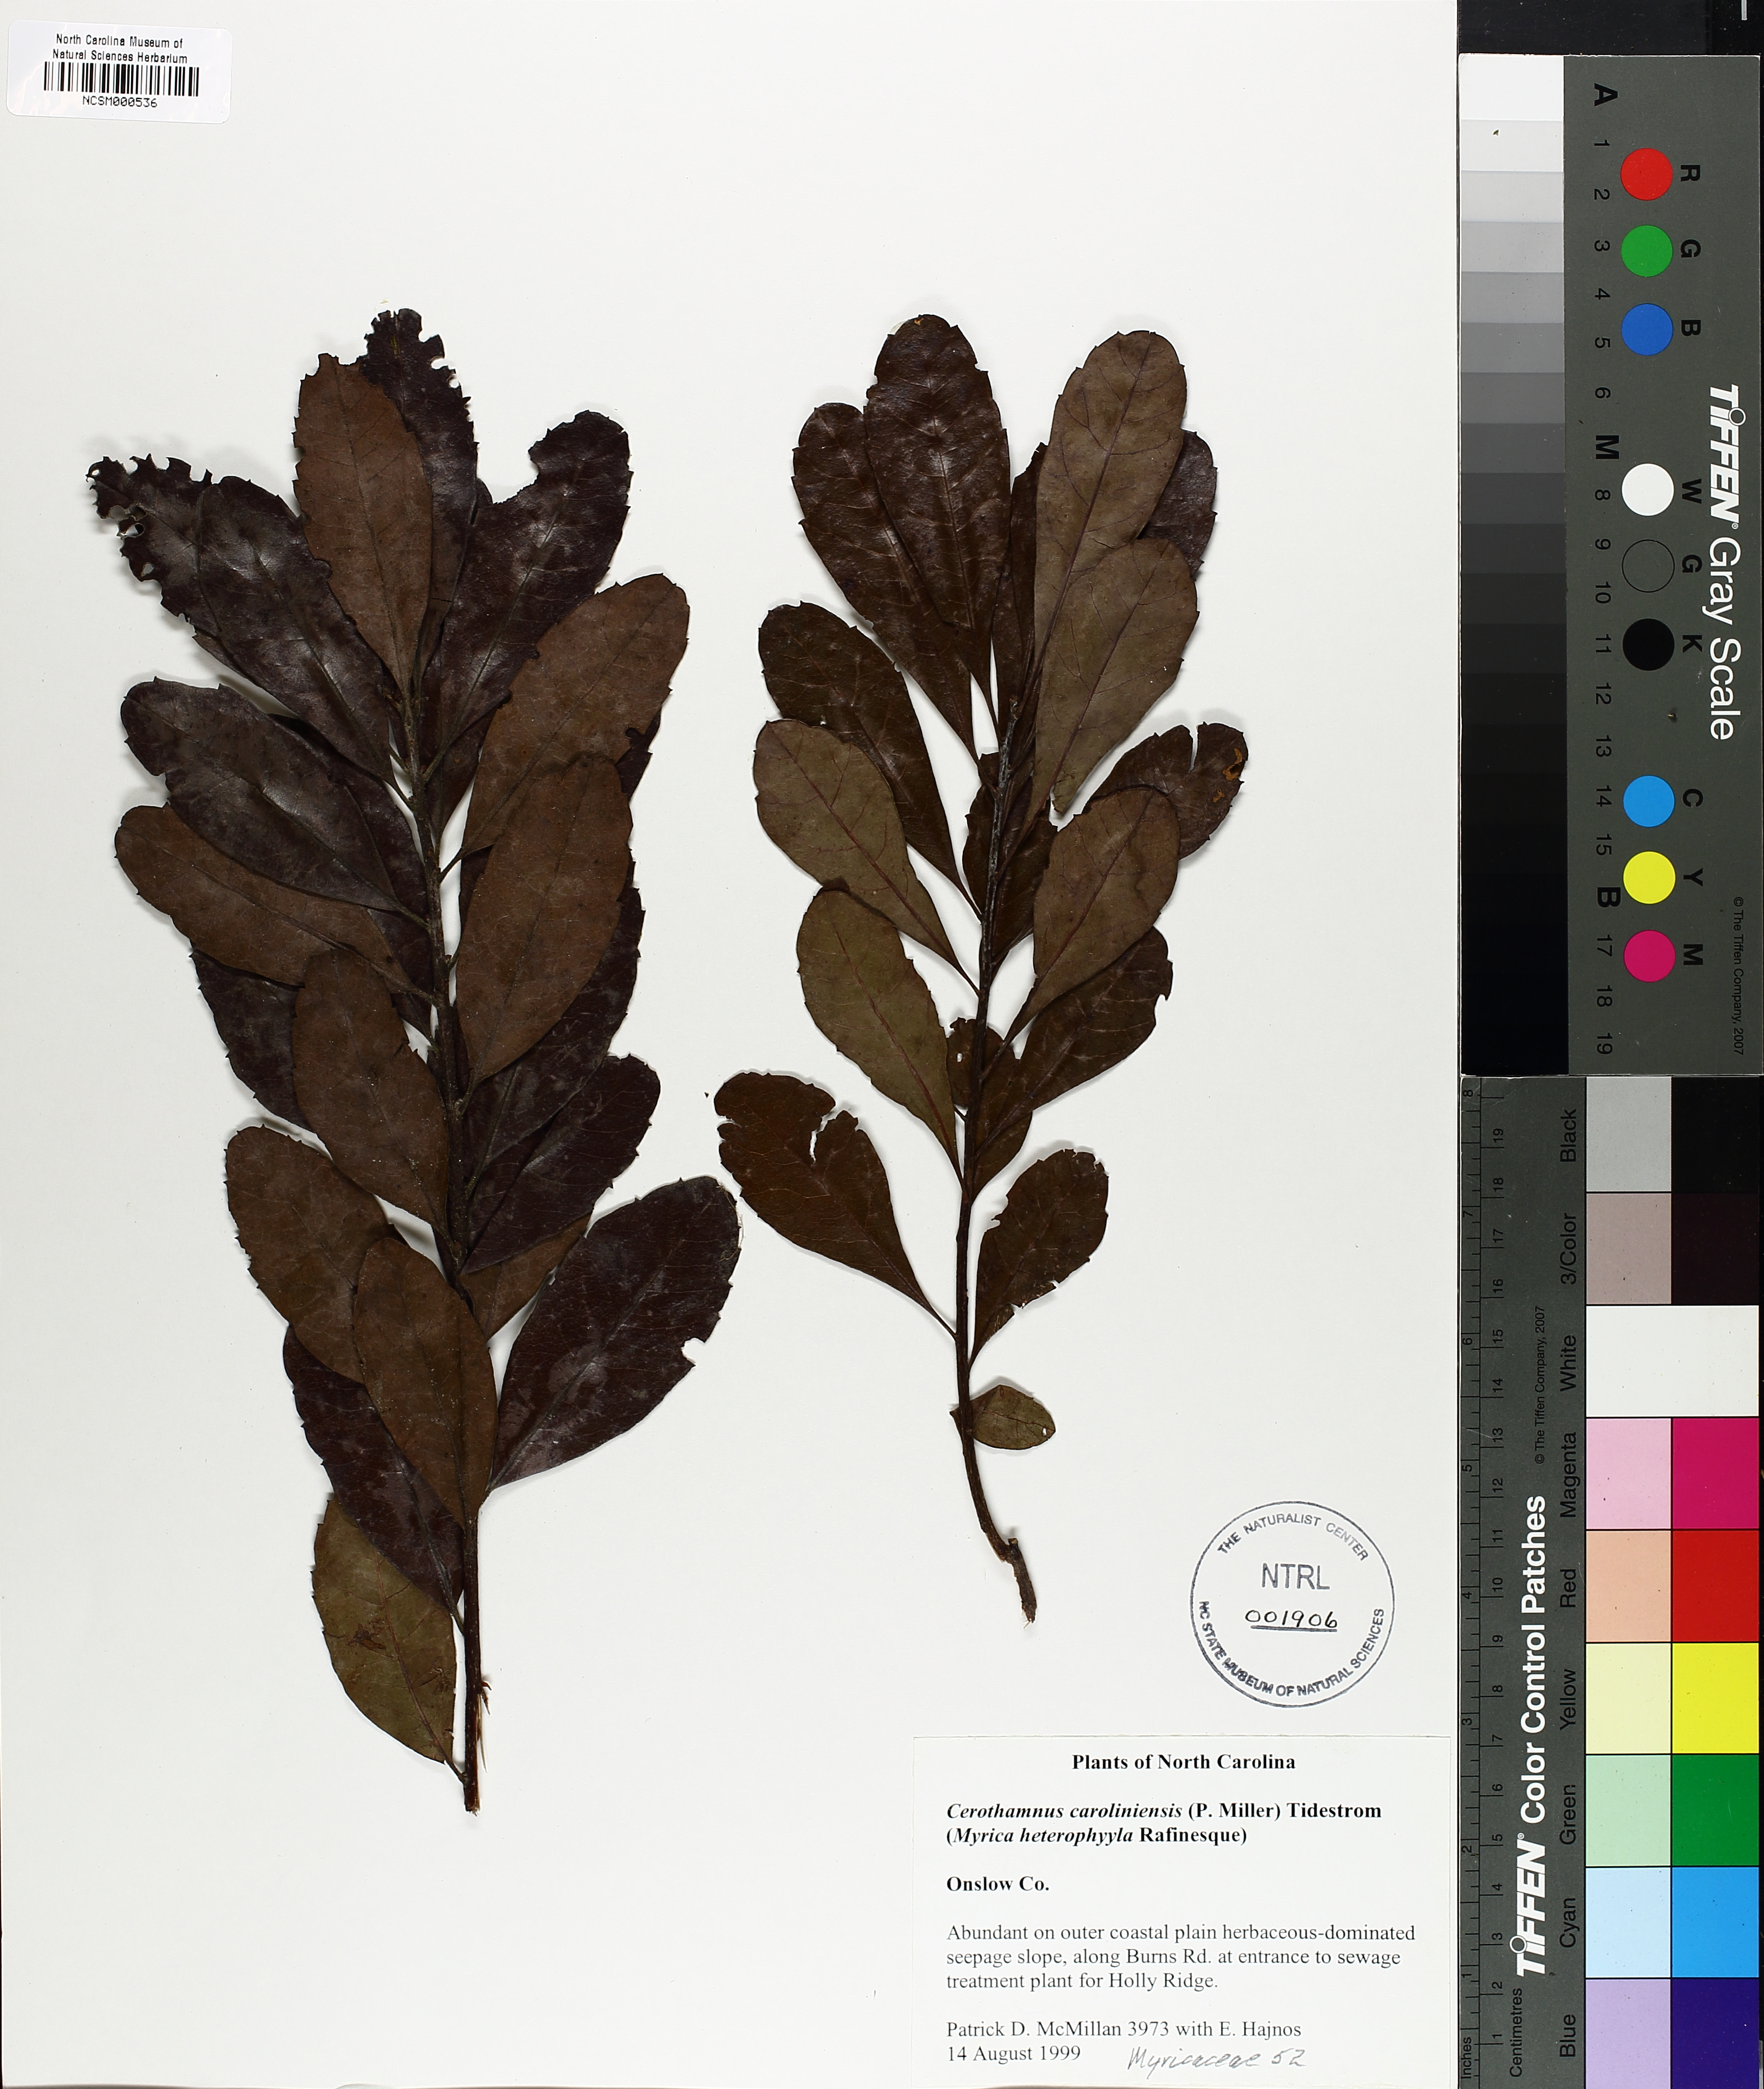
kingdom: Plantae
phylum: Tracheophyta
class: Magnoliopsida
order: Fagales
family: Myricaceae
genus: Morella
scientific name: Morella caroliniensis
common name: Evergreen bayberry
